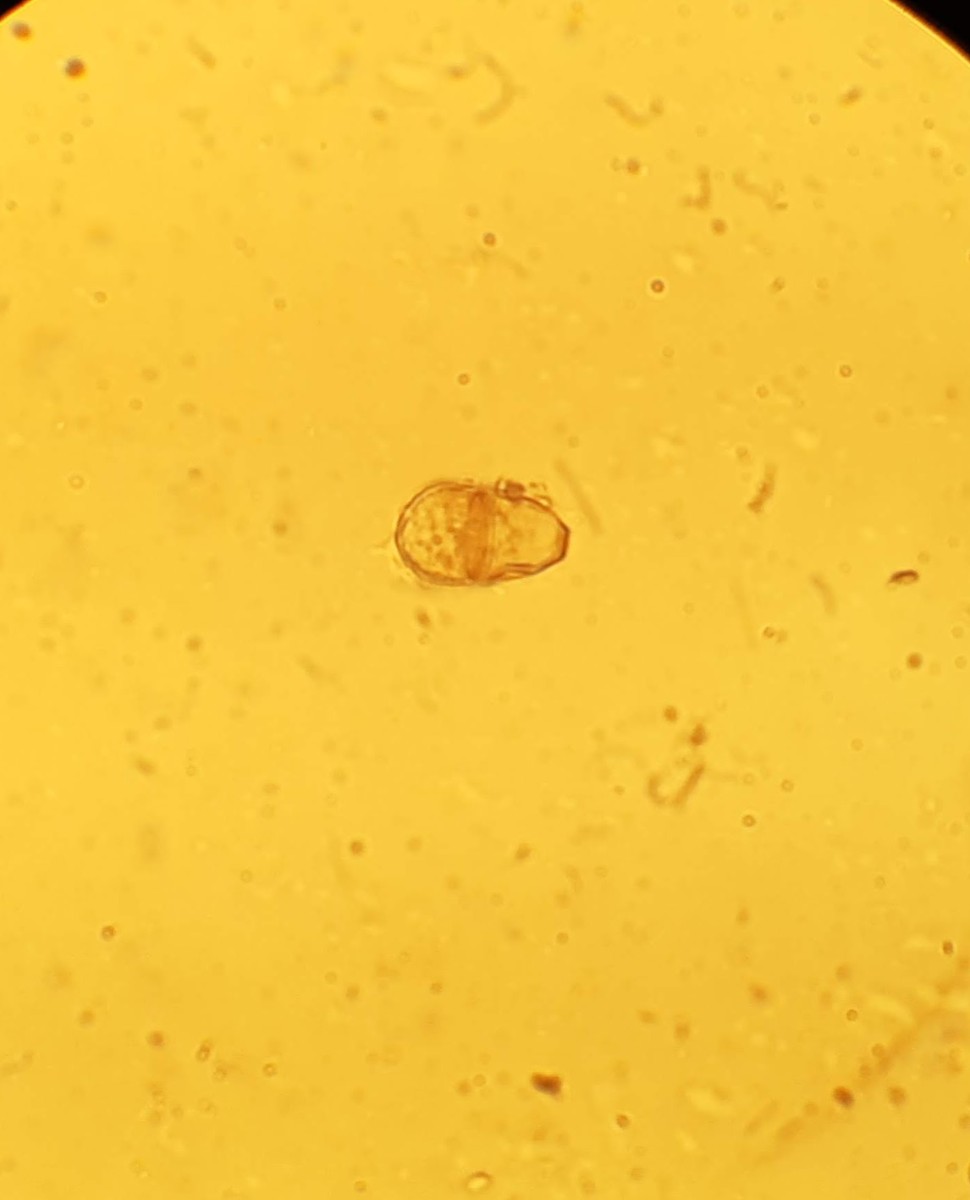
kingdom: Fungi
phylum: Ascomycota
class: Dothideomycetes
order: Mycosphaerellales
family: Mycosphaerellaceae
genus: Polythrincium
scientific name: Polythrincium trifolii
